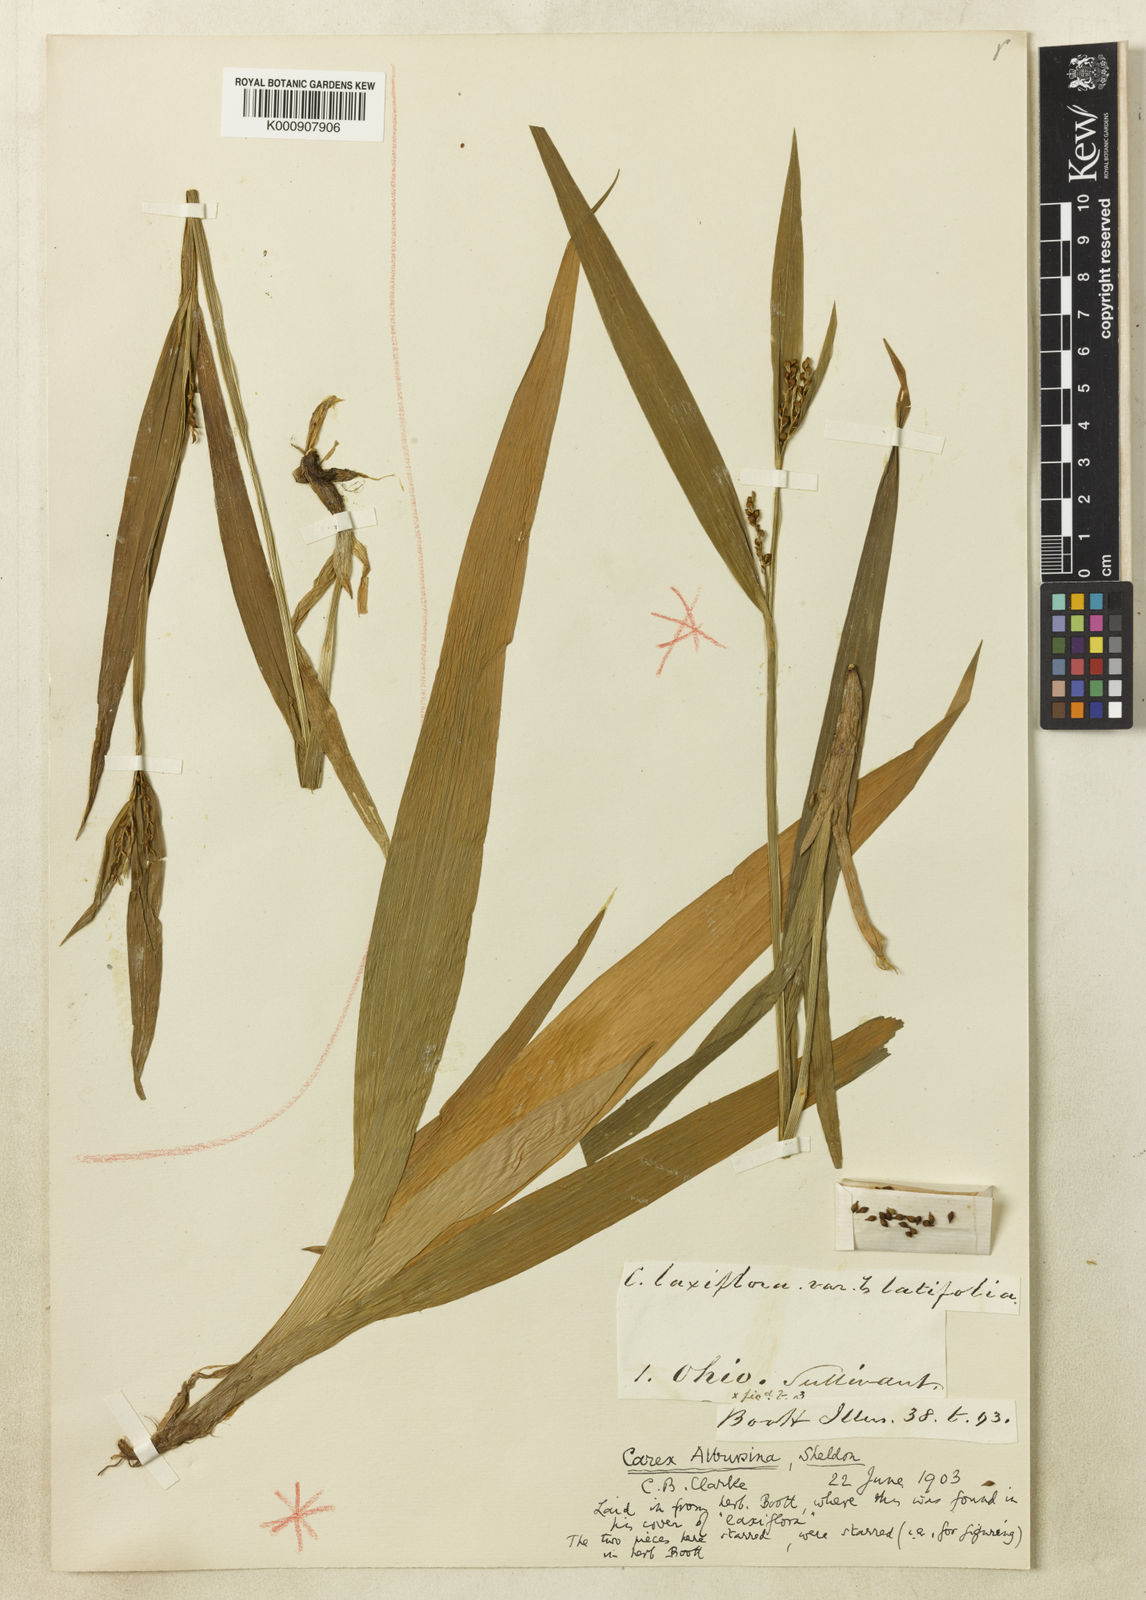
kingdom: Plantae
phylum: Tracheophyta
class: Liliopsida
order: Poales
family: Cyperaceae
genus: Carex
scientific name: Carex albursina
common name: Blunt-scale wood sedge
